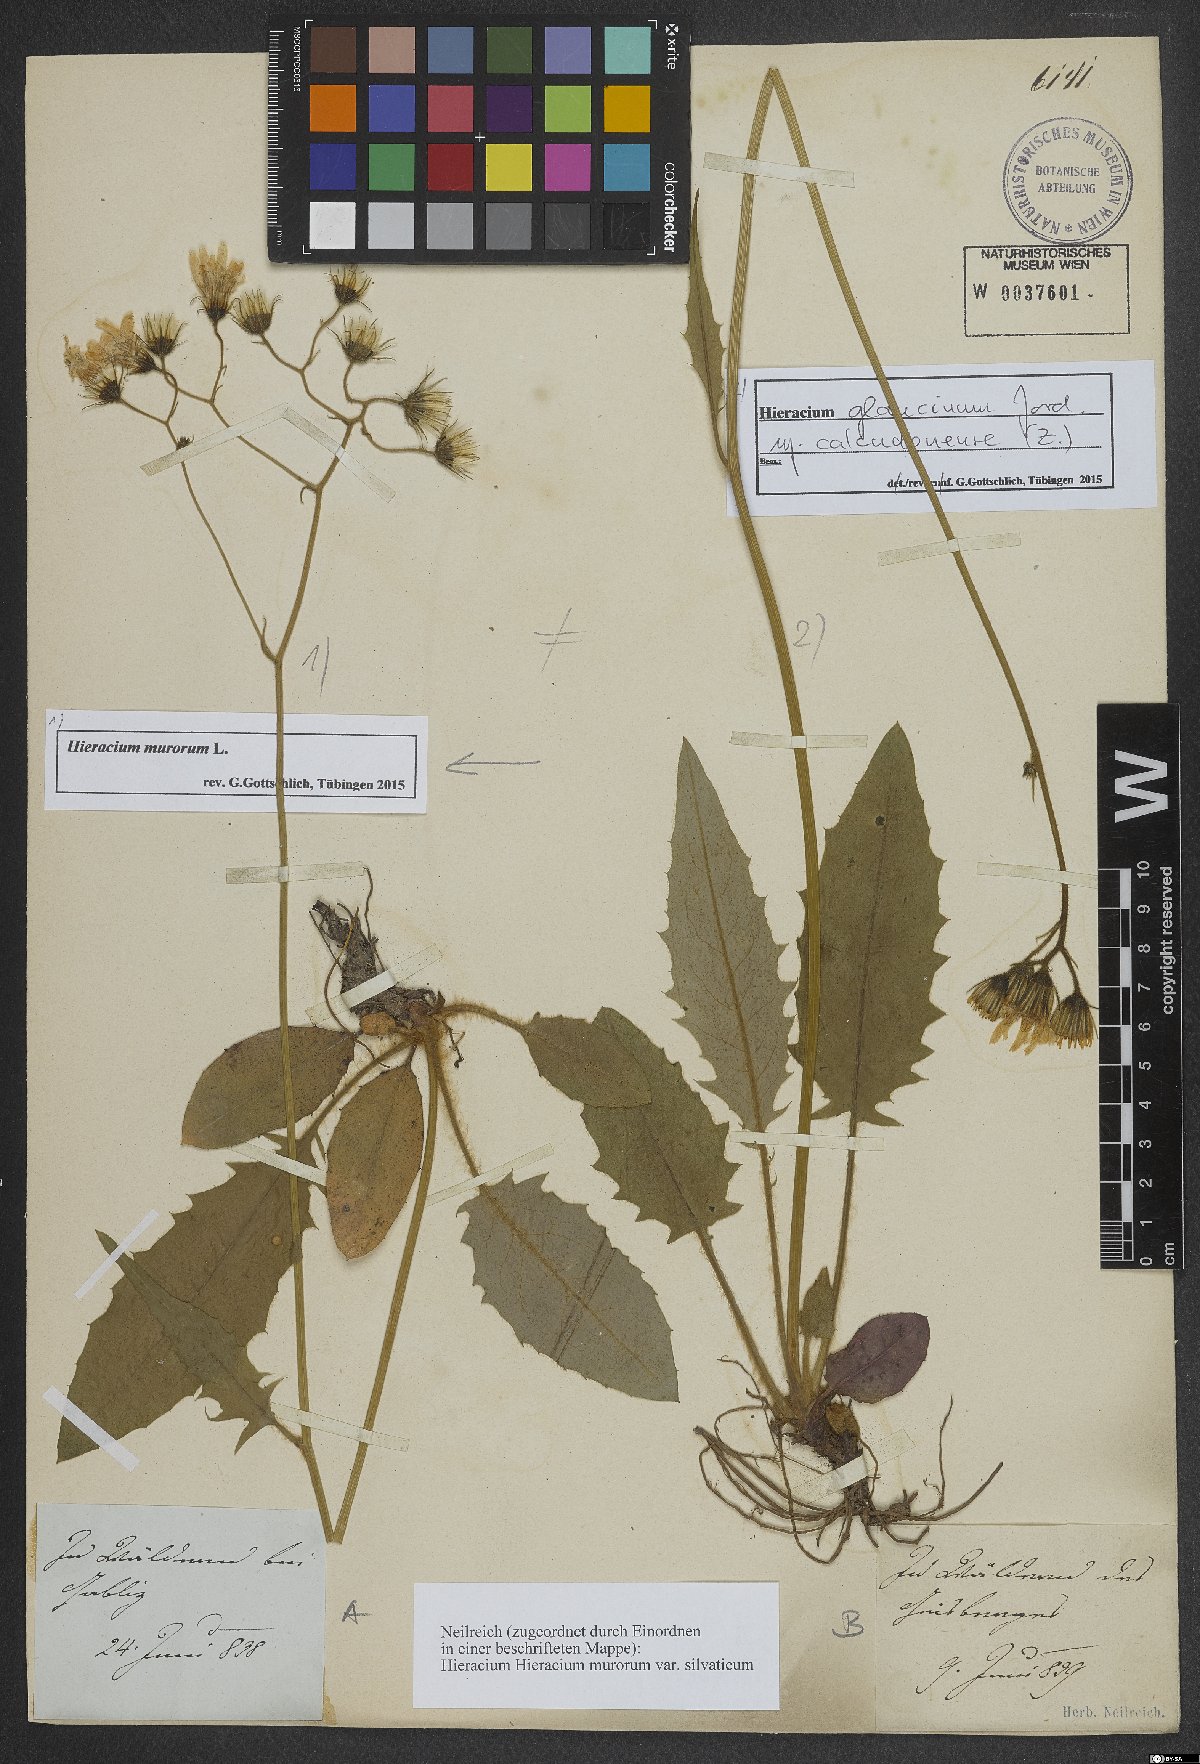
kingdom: Plantae
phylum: Tracheophyta
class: Magnoliopsida
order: Asterales
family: Asteraceae
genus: Hieracium
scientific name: Hieracium murorum
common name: Wall hawkweed
